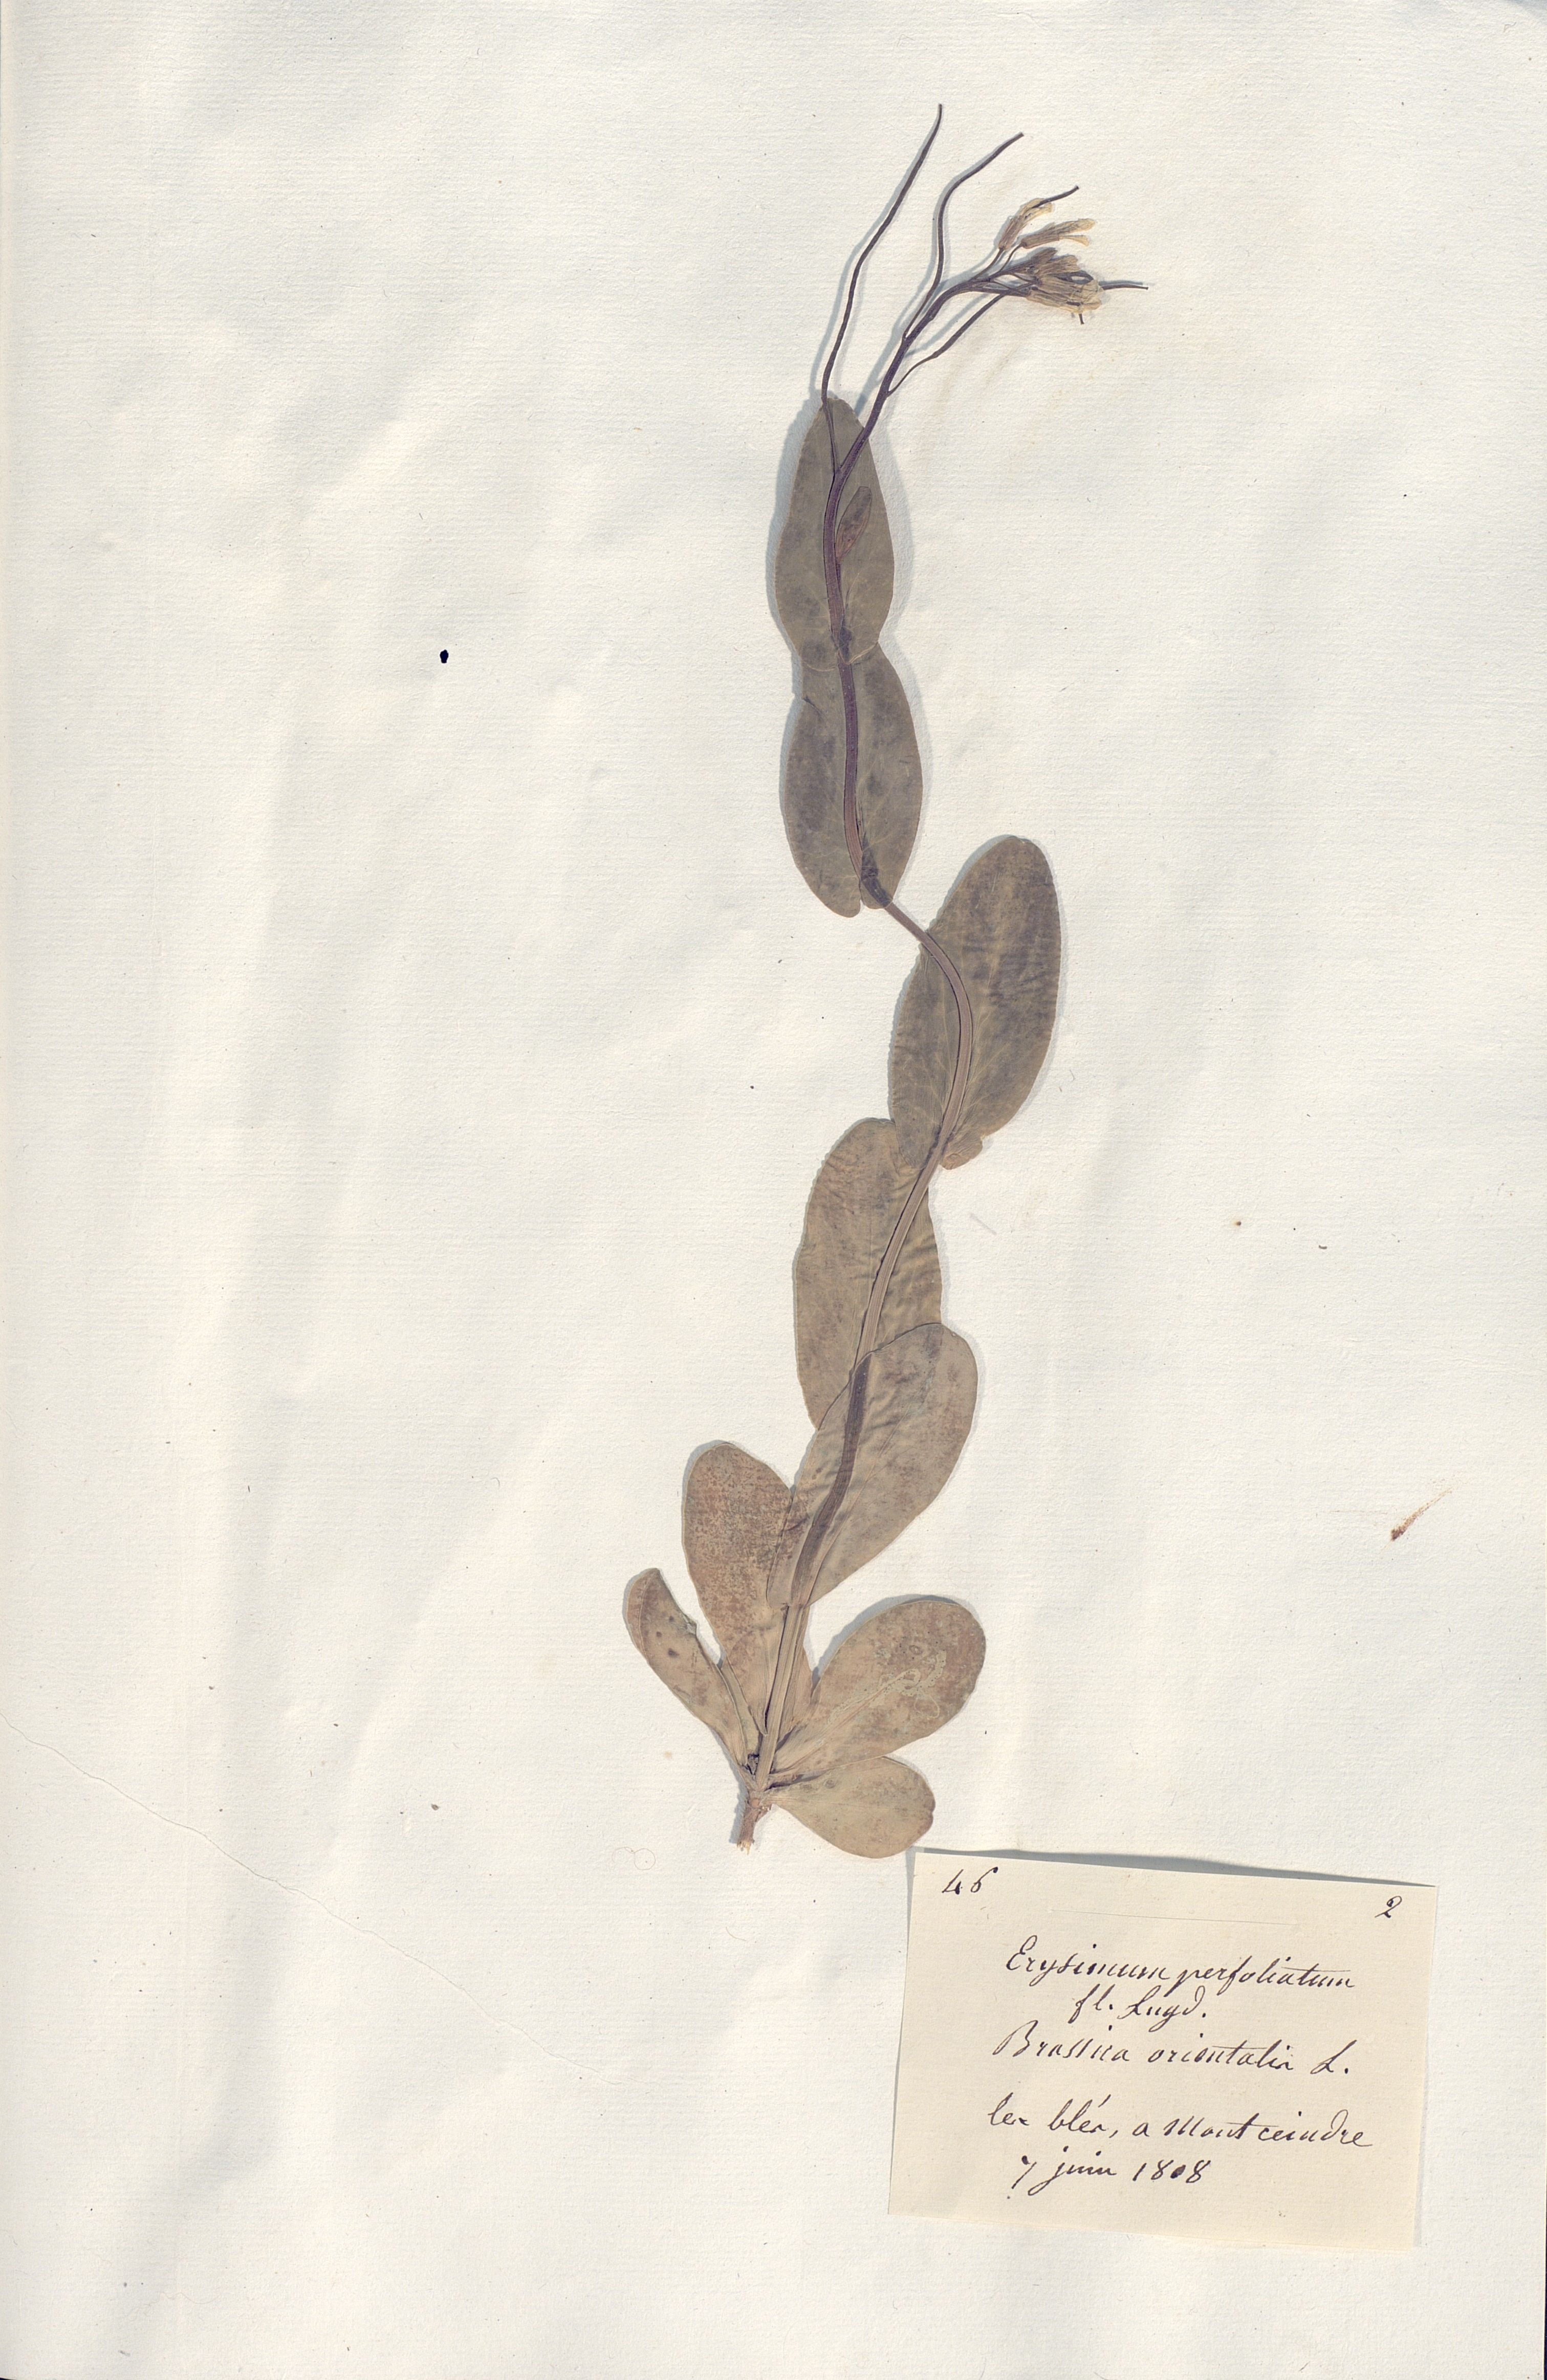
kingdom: Plantae
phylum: Tracheophyta
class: Magnoliopsida
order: Brassicales
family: Brassicaceae
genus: Conringia
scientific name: Conringia orientalis
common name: Hare's ear mustard
